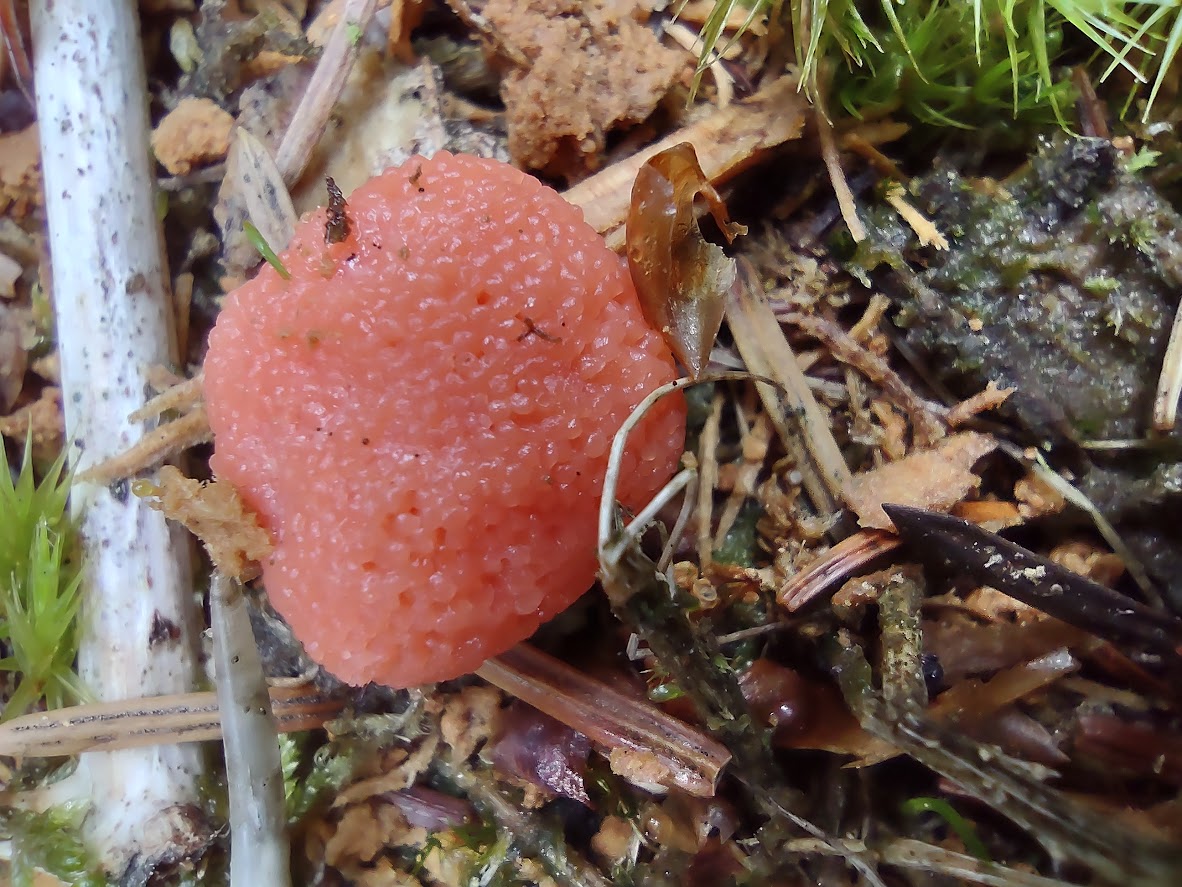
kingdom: Protozoa
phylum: Mycetozoa
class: Myxomycetes
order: Cribrariales
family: Tubiferaceae
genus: Tubifera
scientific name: Tubifera ferruginosa
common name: kanel-støvrør
